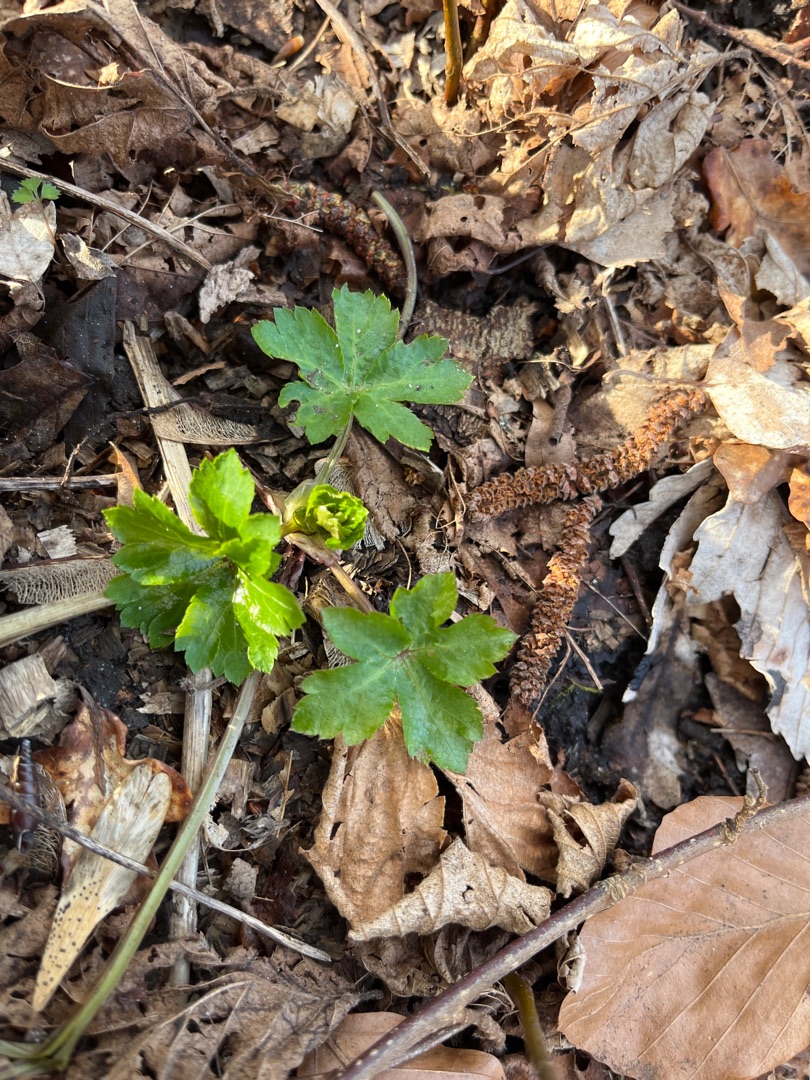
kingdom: Plantae
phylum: Tracheophyta
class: Magnoliopsida
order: Apiales
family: Apiaceae
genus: Sanicula
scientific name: Sanicula europaea
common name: Sanikel
